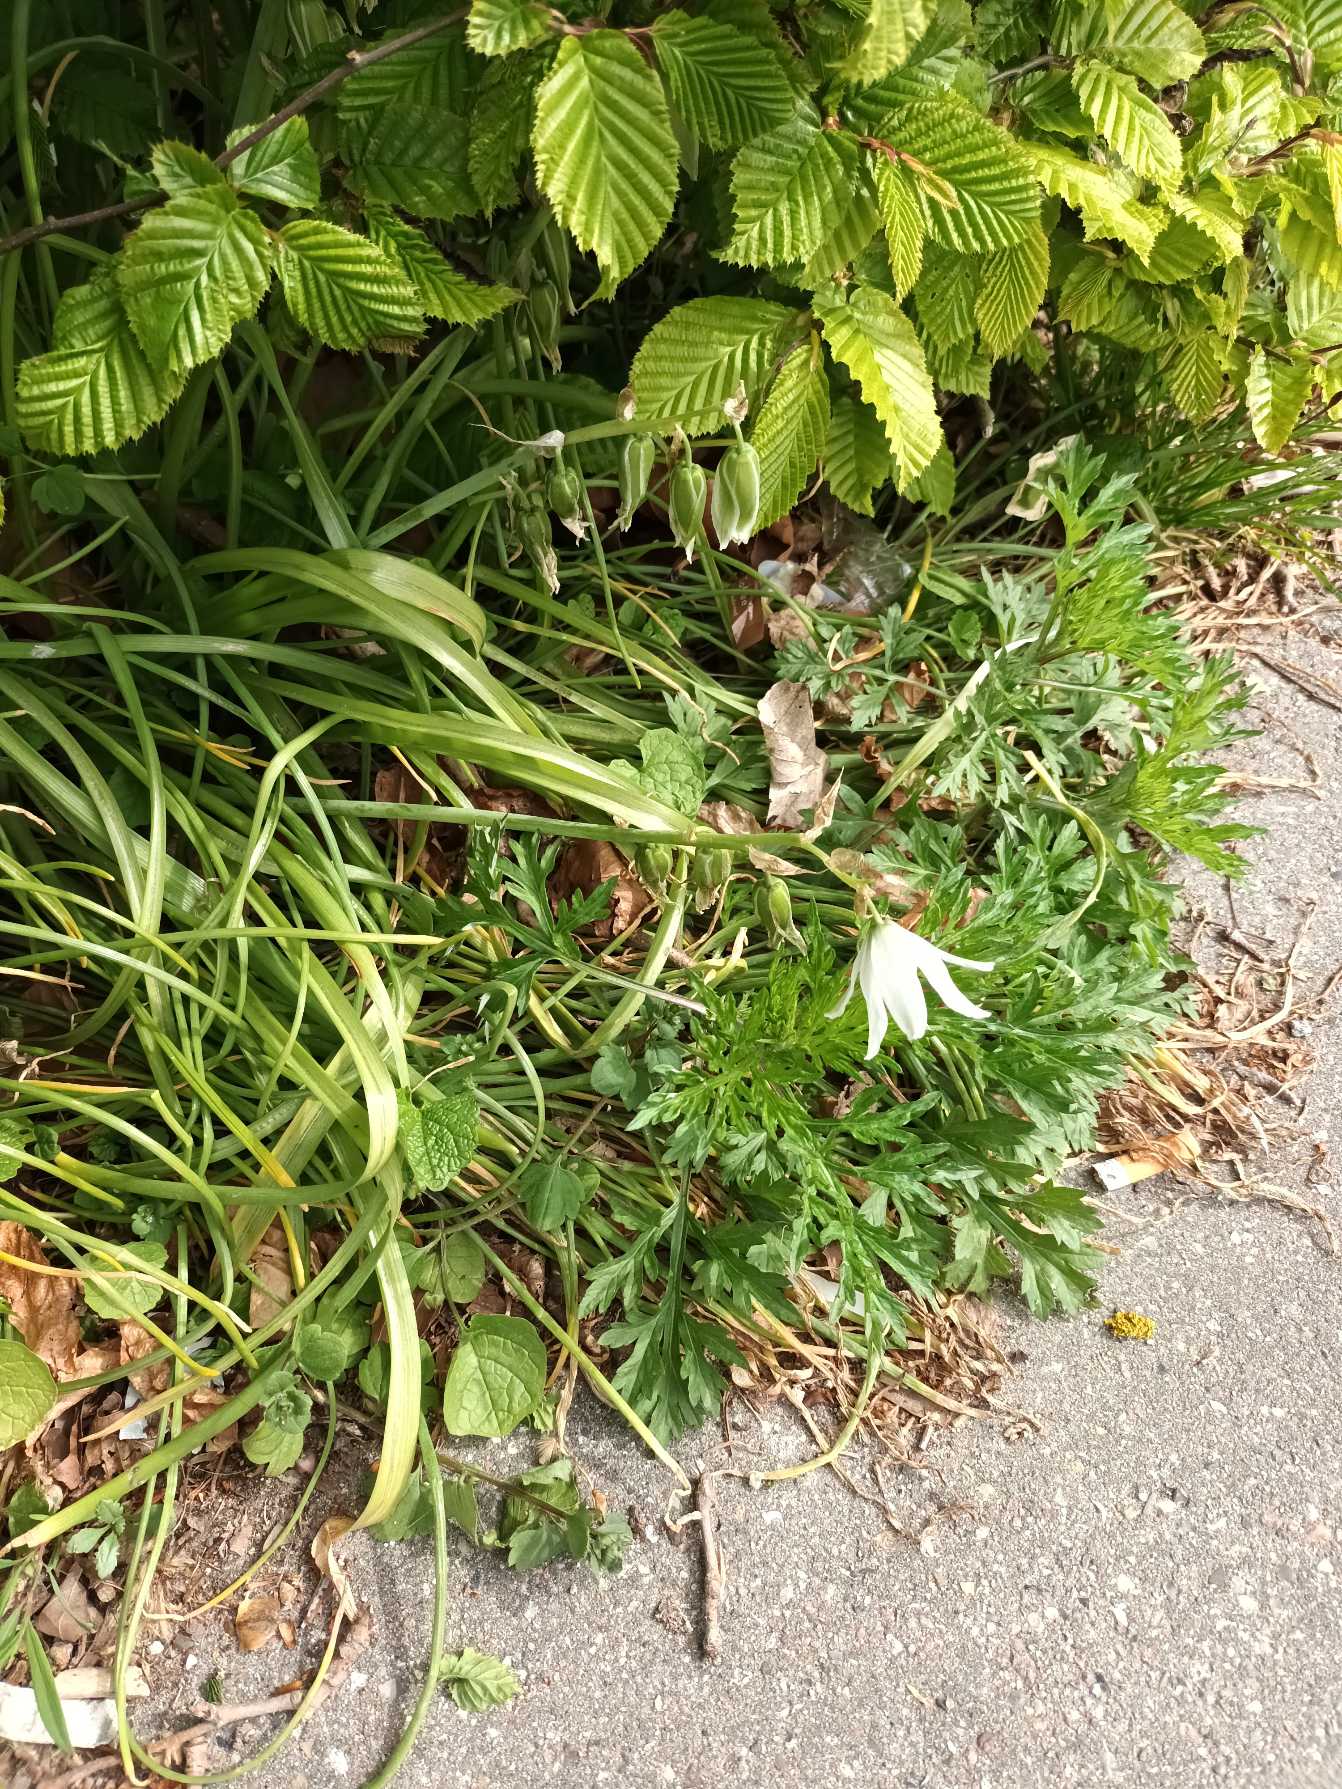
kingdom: Plantae
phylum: Tracheophyta
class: Liliopsida
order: Asparagales
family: Asparagaceae
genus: Ornithogalum
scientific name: Ornithogalum nutans
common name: Nikkende fuglemælk
